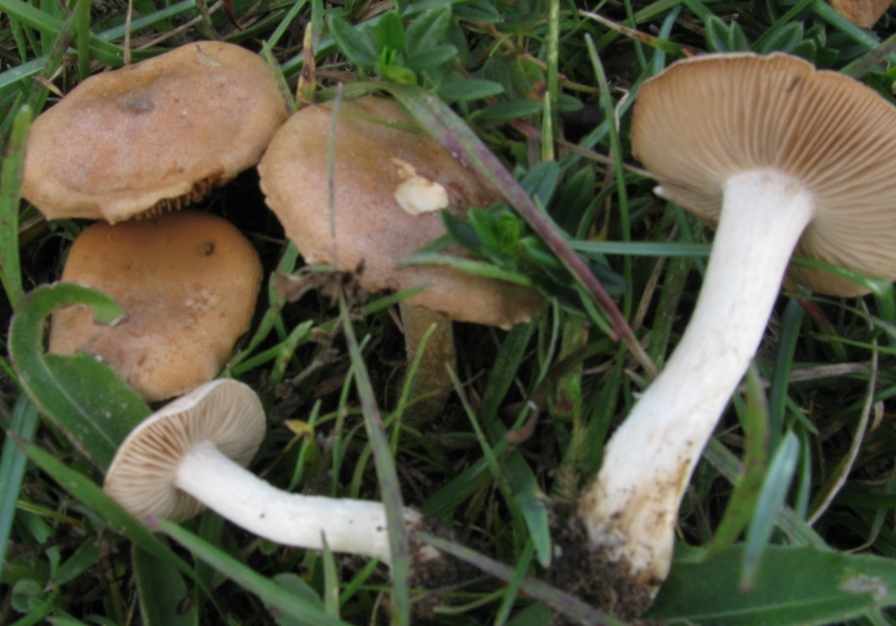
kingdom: Fungi
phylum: Basidiomycota
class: Agaricomycetes
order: Agaricales
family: Hymenogastraceae
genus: Hebeloma
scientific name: Hebeloma cavipes
